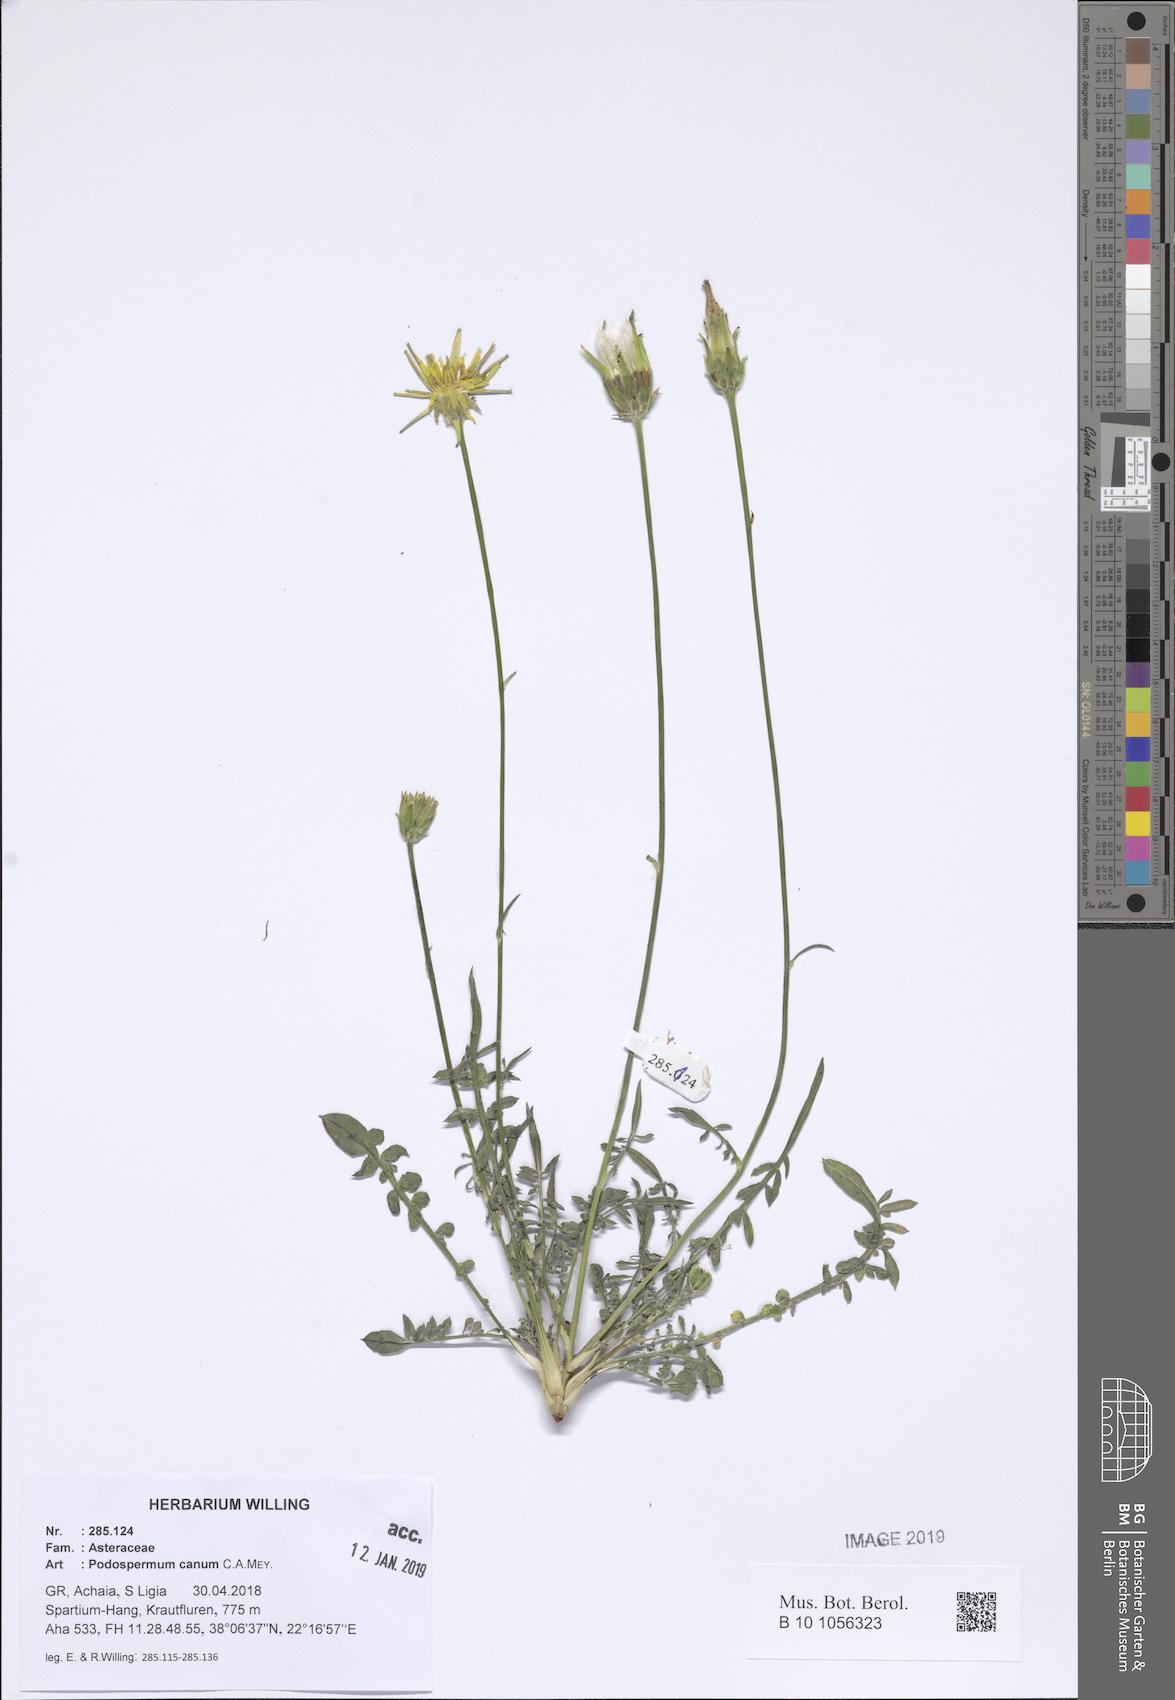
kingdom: Plantae
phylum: Tracheophyta
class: Magnoliopsida
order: Asterales
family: Asteraceae
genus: Scorzonera
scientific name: Scorzonera cana
